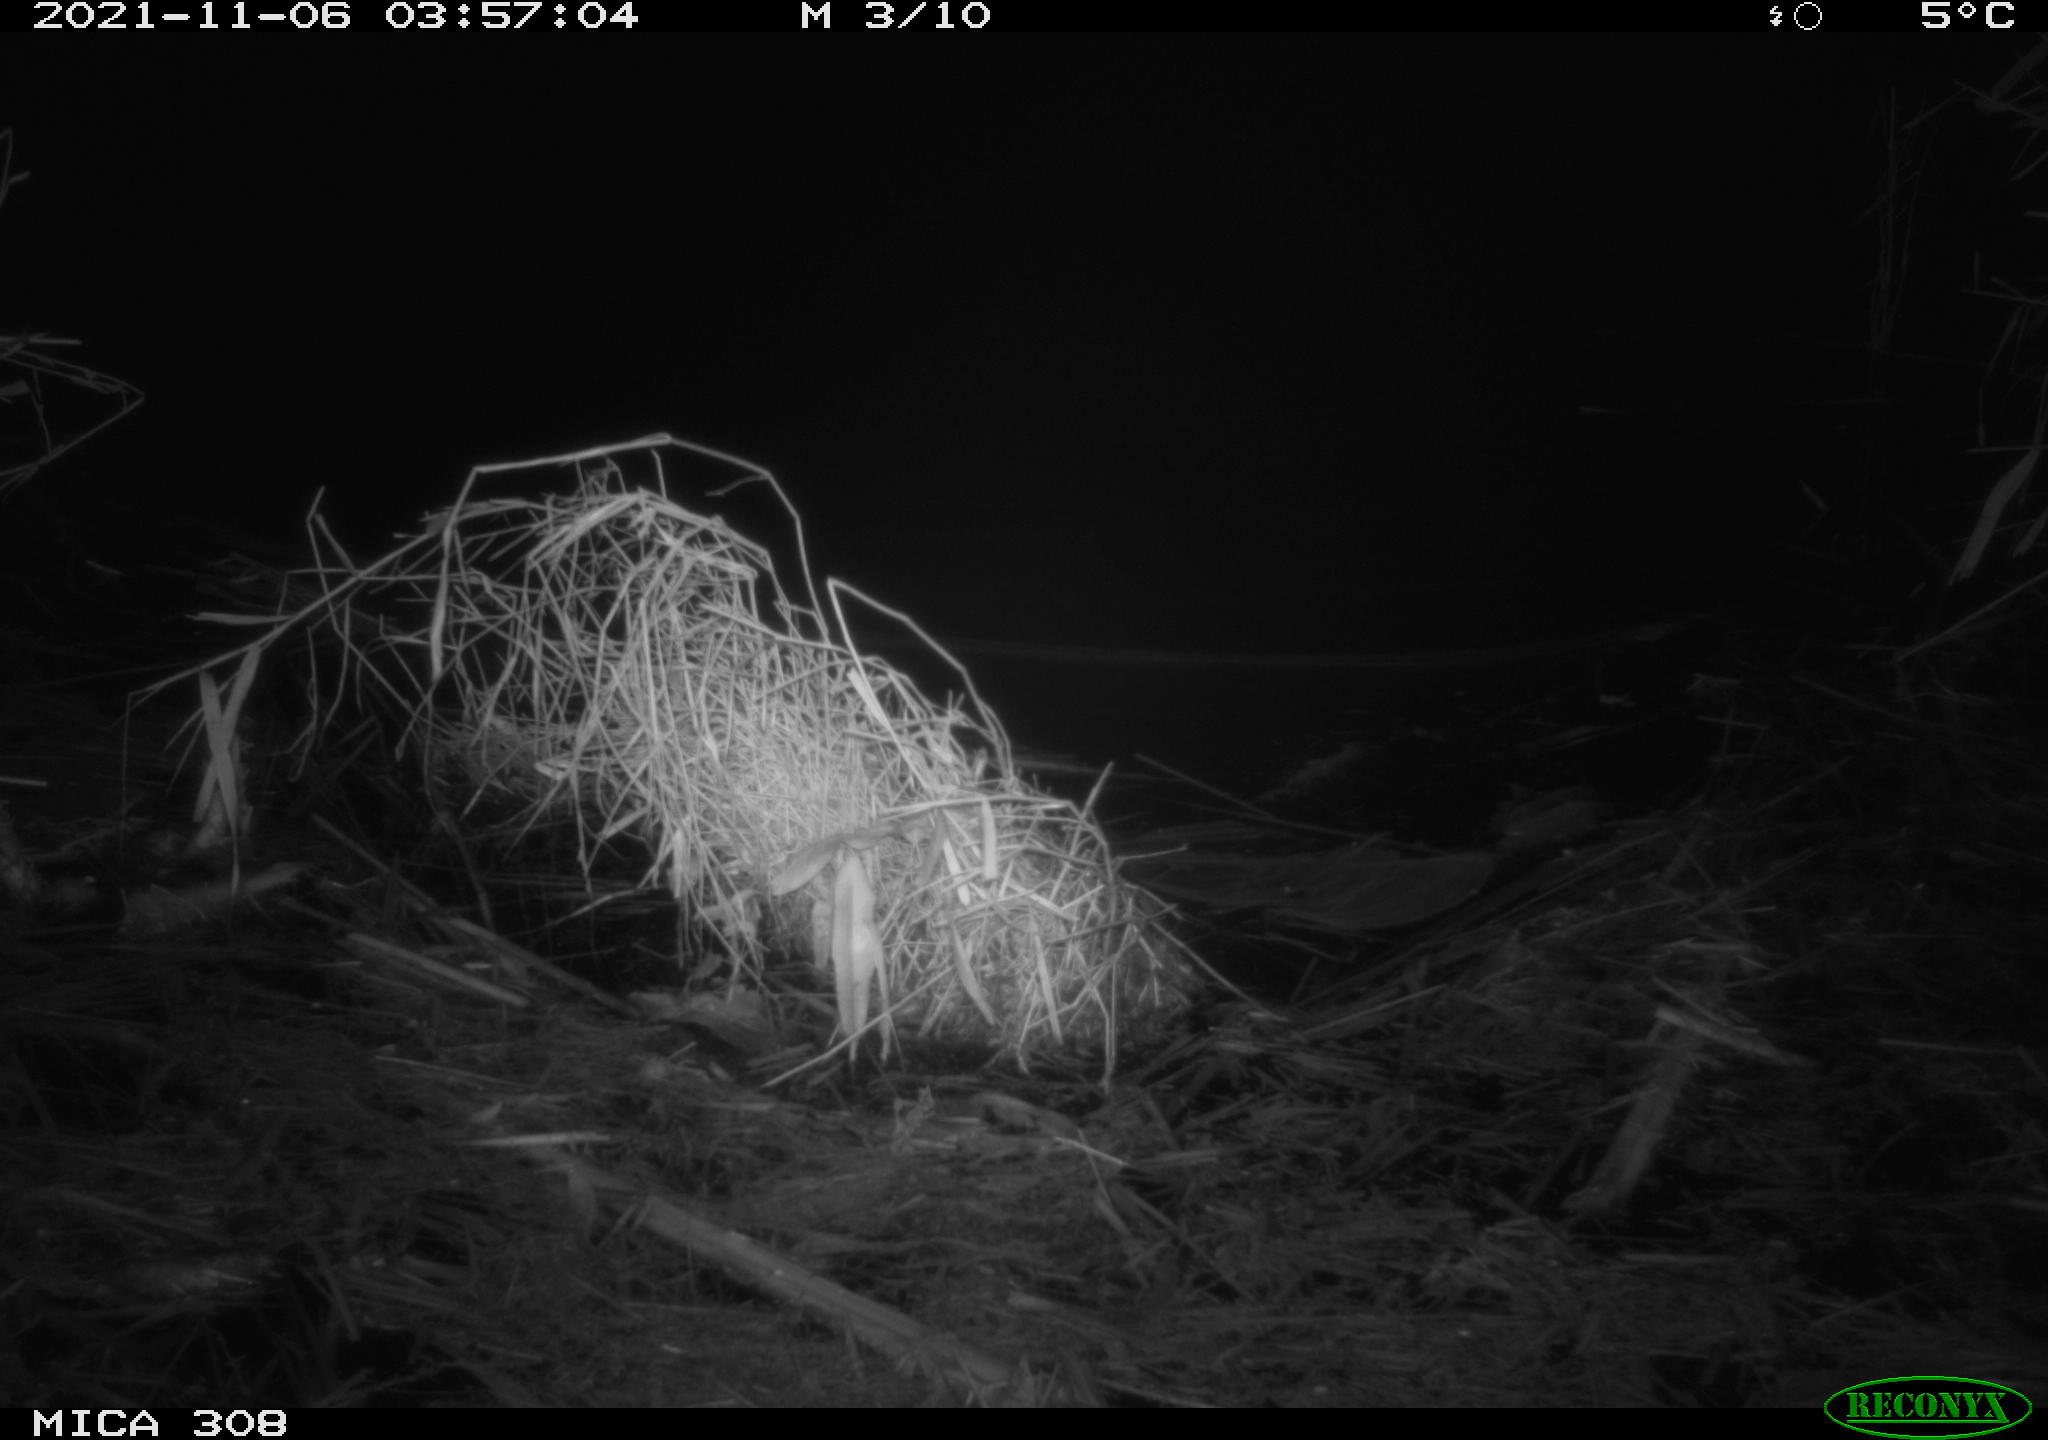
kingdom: Animalia
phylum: Chordata
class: Mammalia
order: Rodentia
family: Muridae
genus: Rattus
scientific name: Rattus norvegicus
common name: Brown rat
